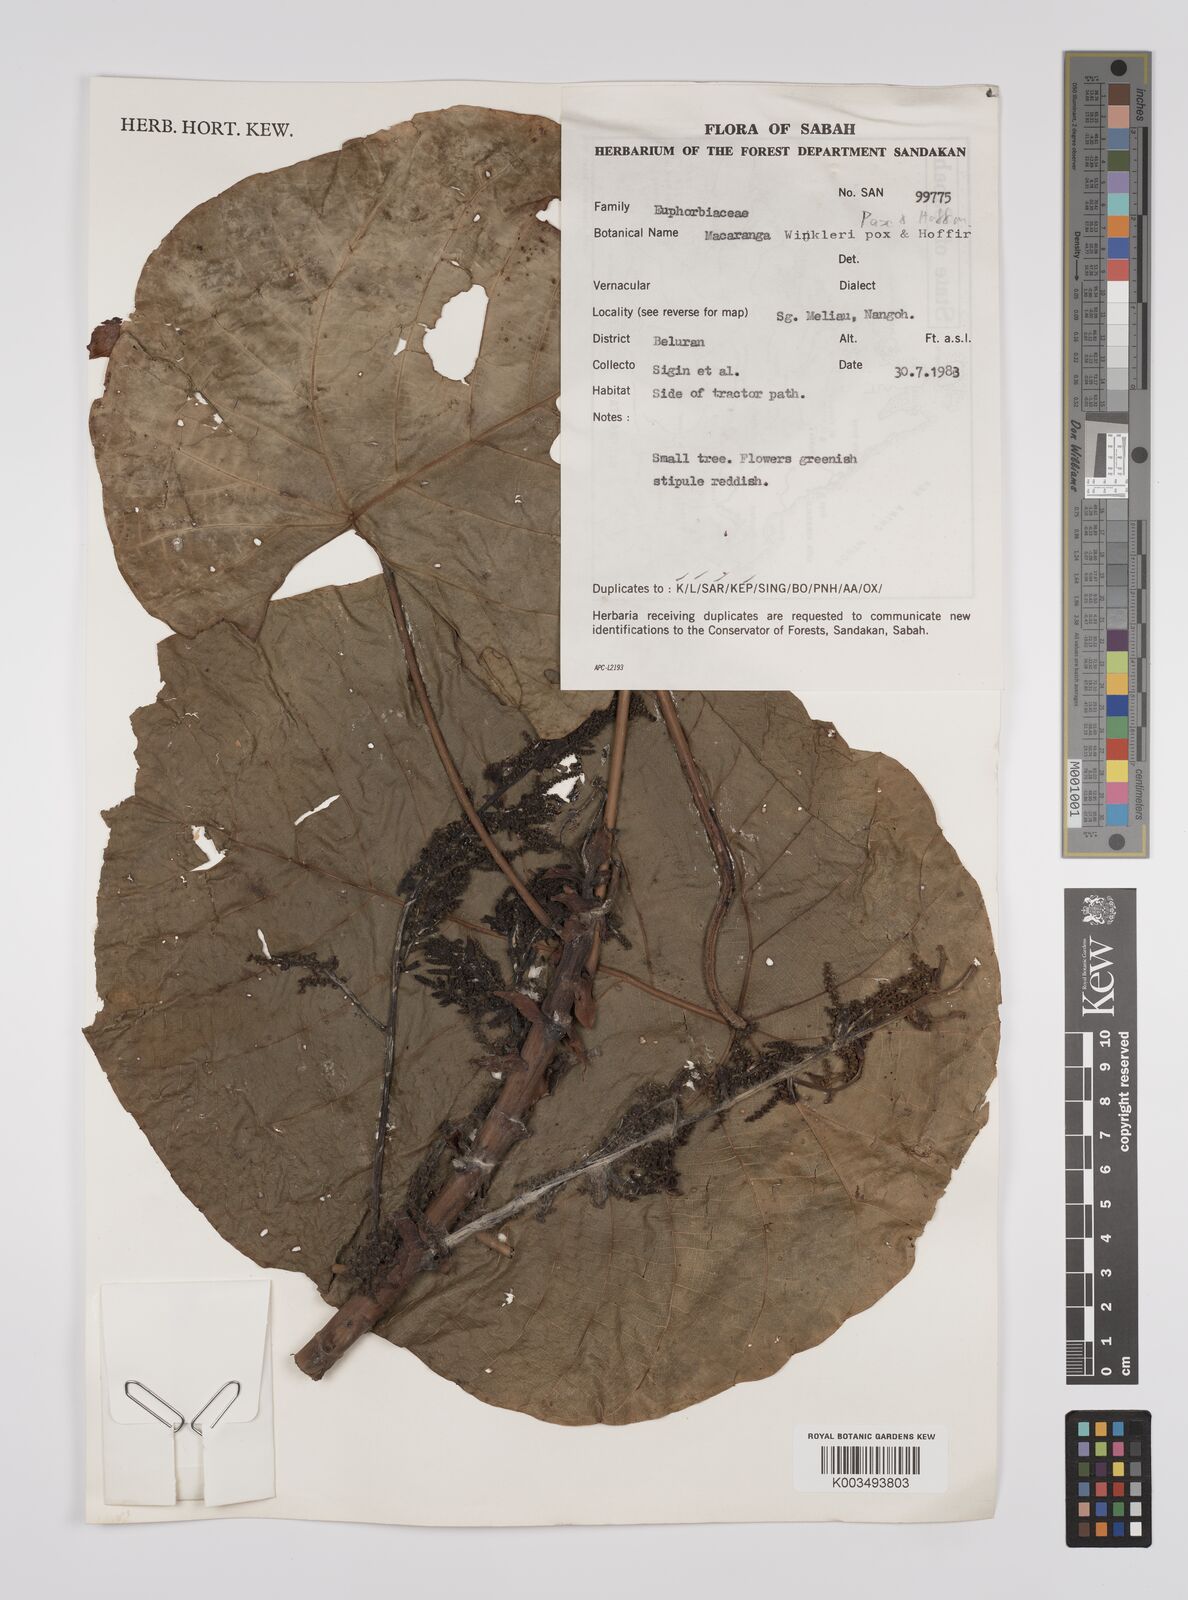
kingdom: Plantae
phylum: Tracheophyta
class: Magnoliopsida
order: Malpighiales
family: Euphorbiaceae
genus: Macaranga
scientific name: Macaranga winkleri
